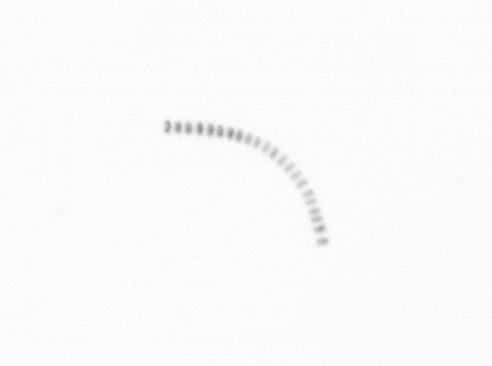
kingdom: Chromista
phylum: Ochrophyta
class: Bacillariophyceae
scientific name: Bacillariophyceae
